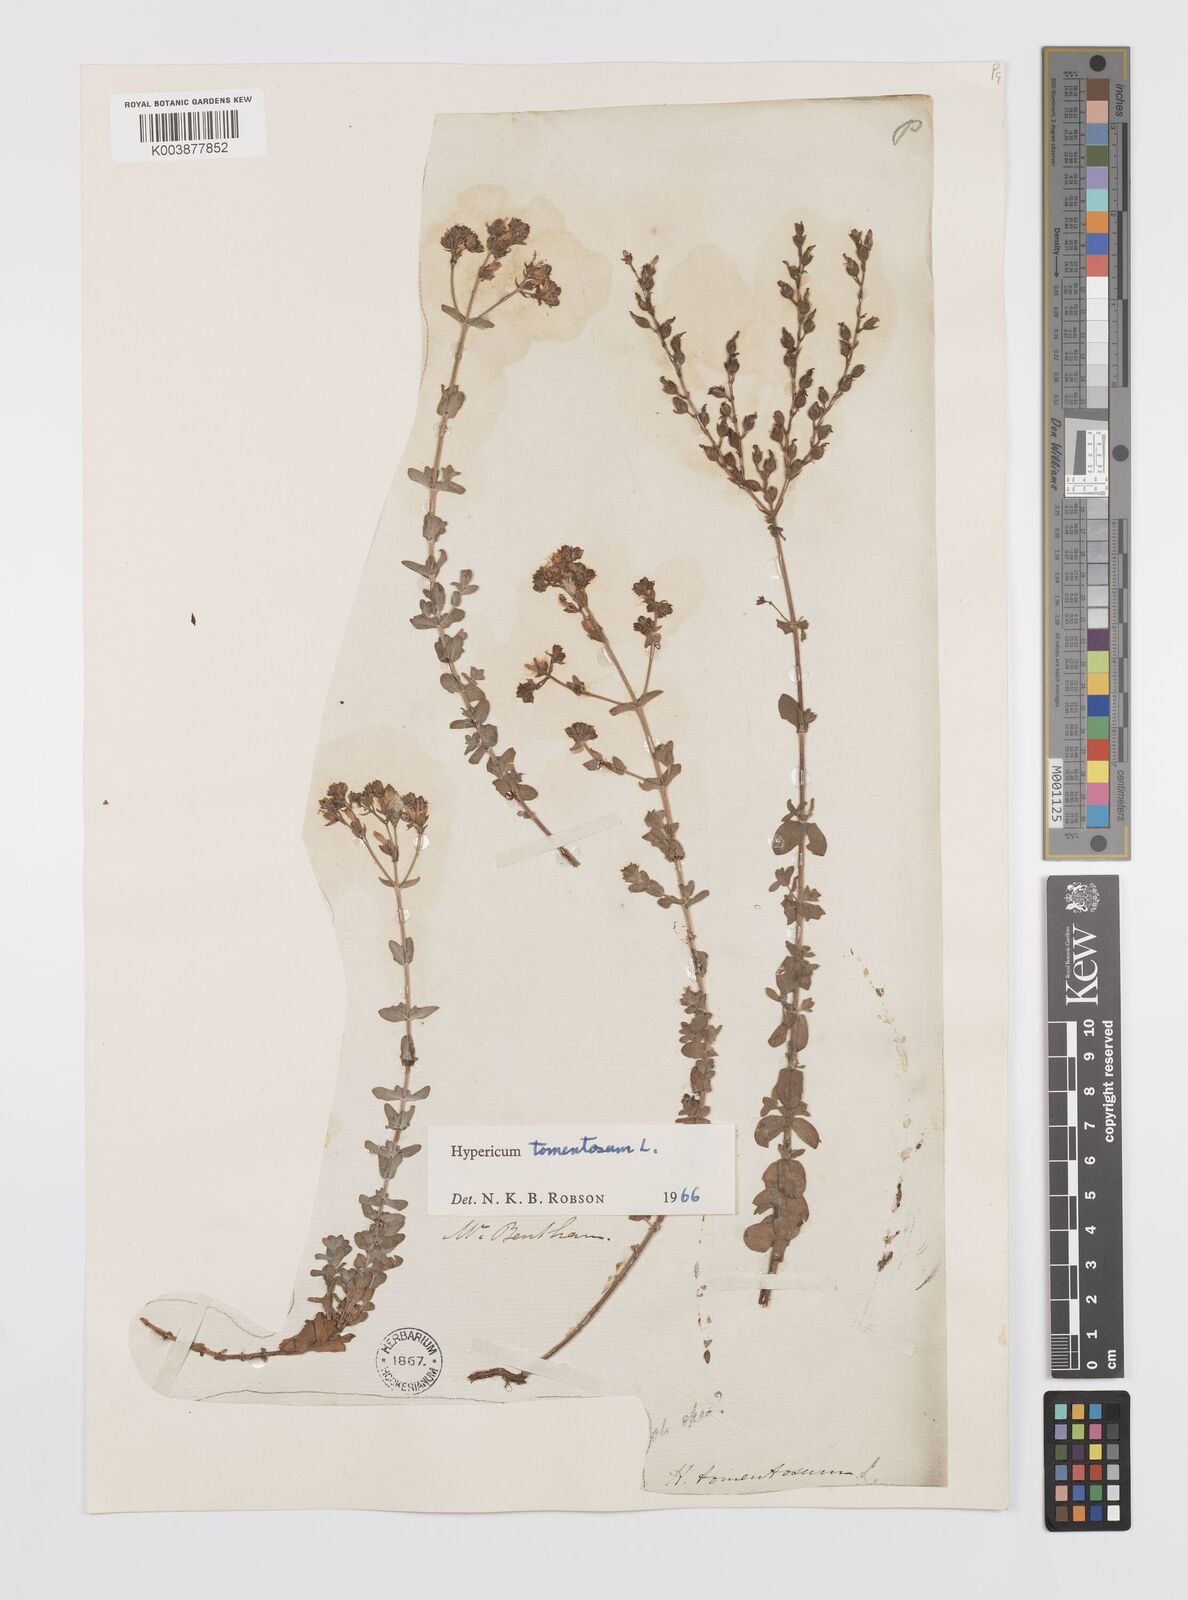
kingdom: Plantae
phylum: Tracheophyta
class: Magnoliopsida
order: Malpighiales
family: Hypericaceae
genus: Hypericum
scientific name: Hypericum tomentosum
